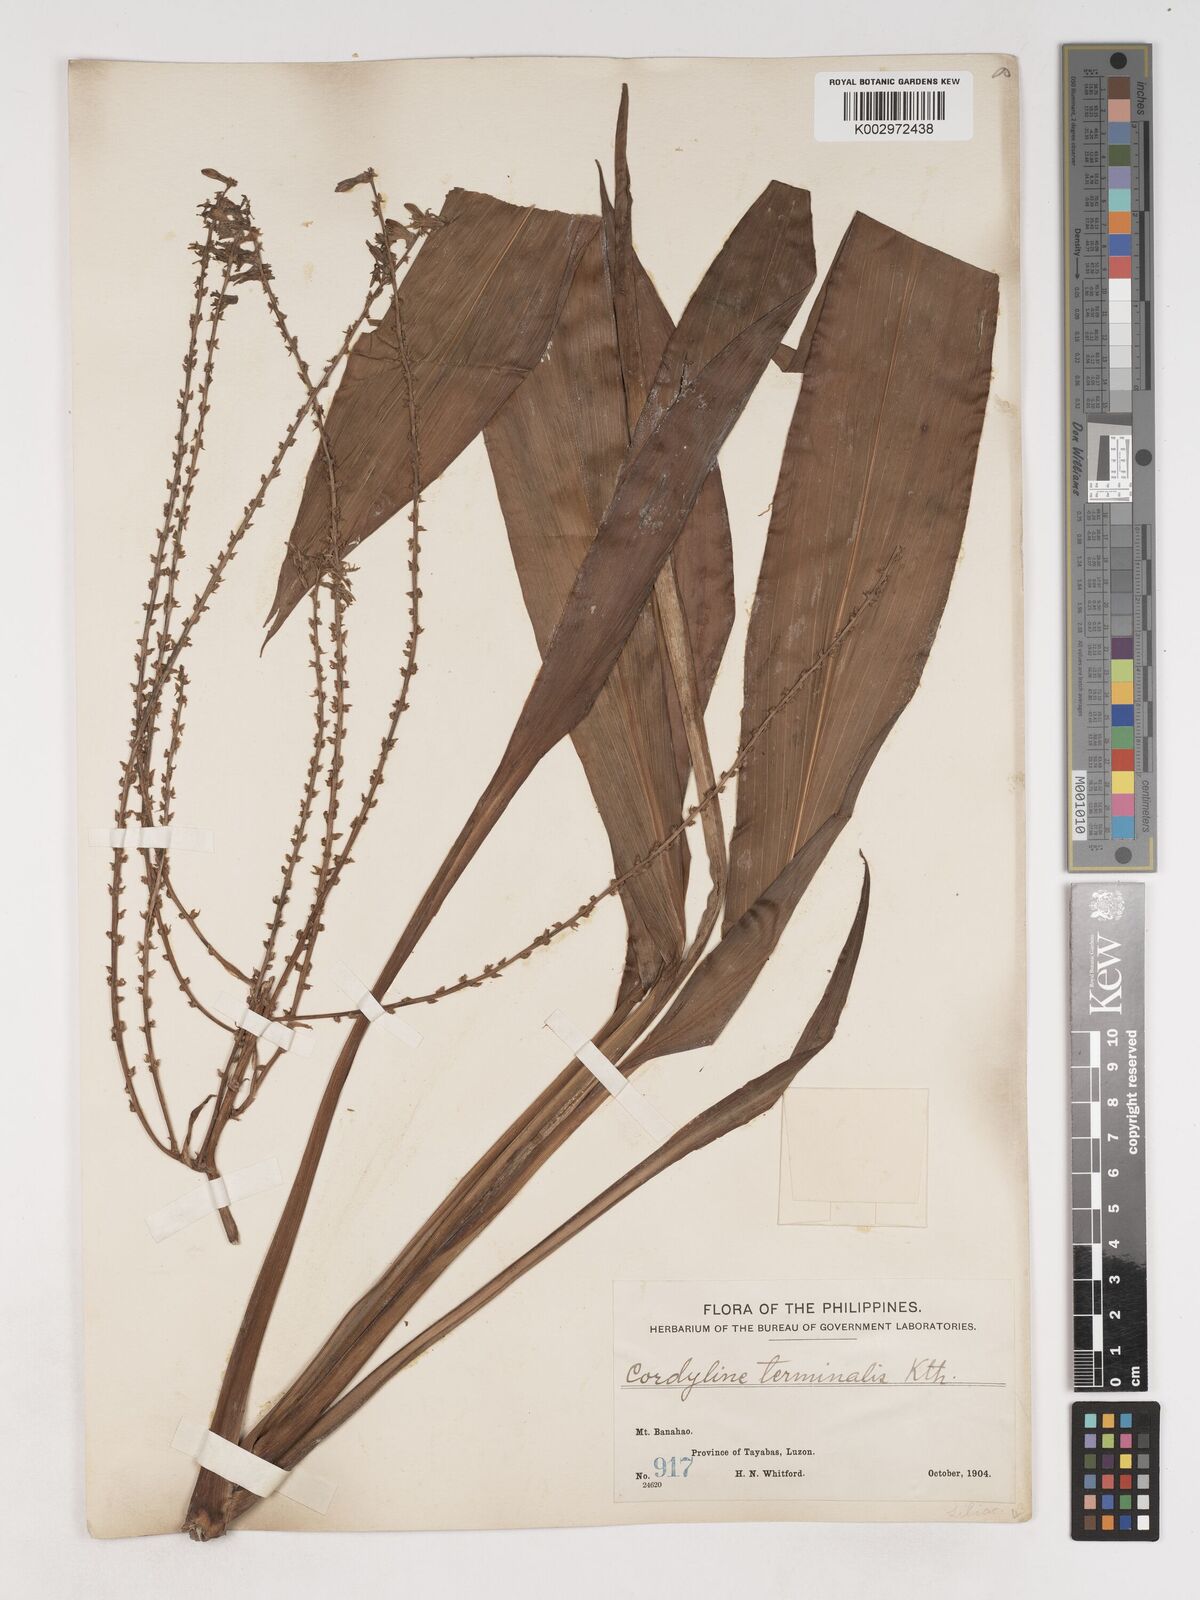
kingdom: Plantae
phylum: Tracheophyta
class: Liliopsida
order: Asparagales
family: Asparagaceae
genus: Cordyline
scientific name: Cordyline fruticosa
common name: Good-luck-plant
